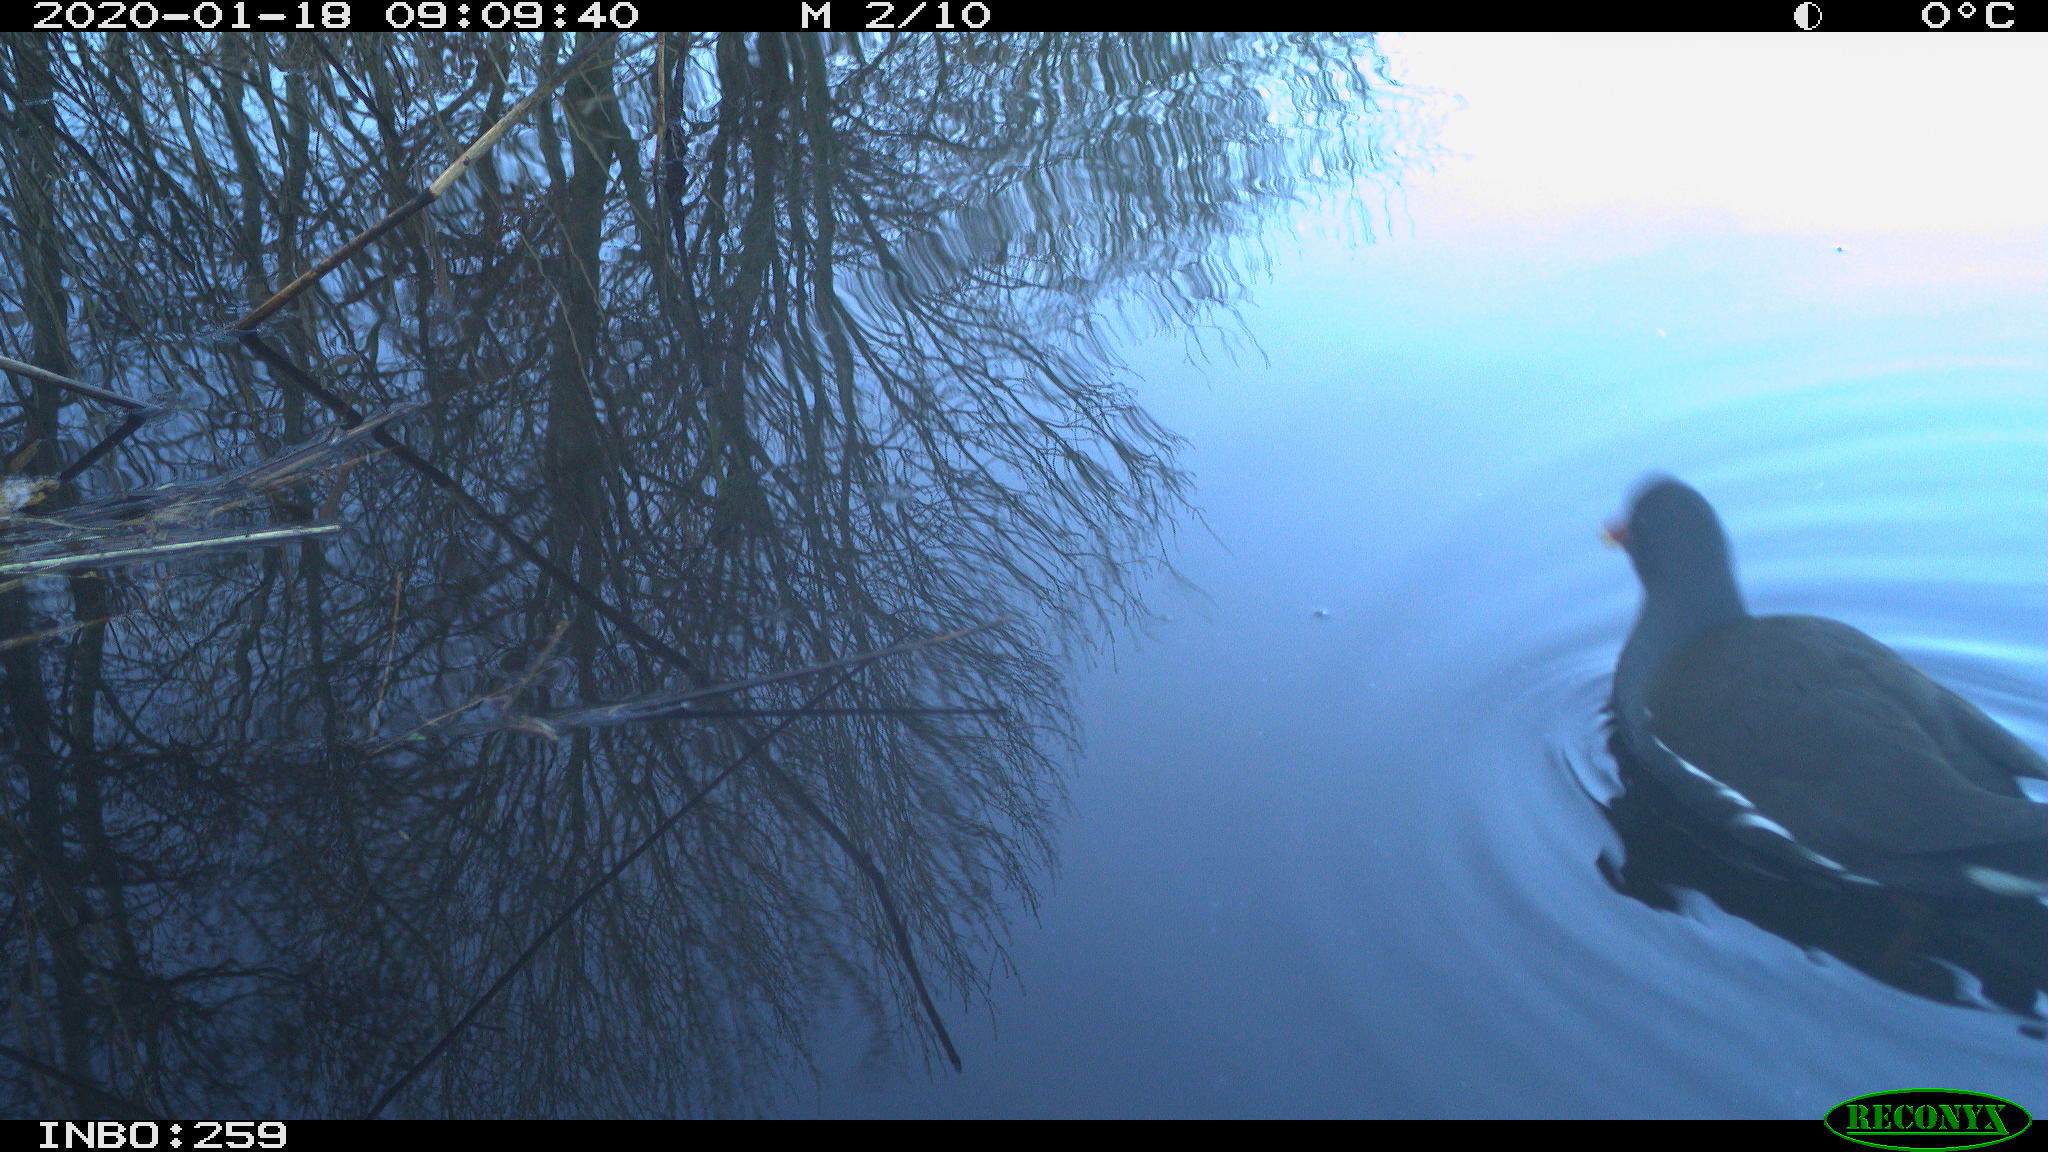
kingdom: Animalia
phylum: Chordata
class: Aves
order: Gruiformes
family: Rallidae
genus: Gallinula
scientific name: Gallinula chloropus
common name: Common moorhen
